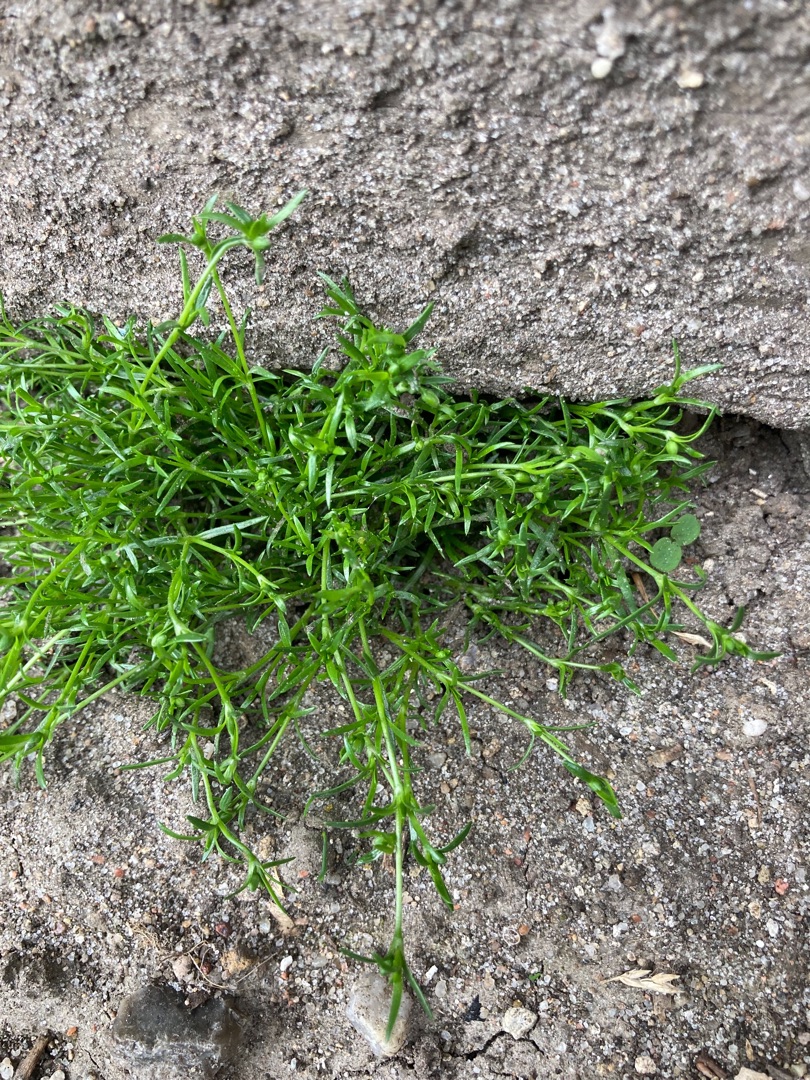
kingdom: Plantae
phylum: Tracheophyta
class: Magnoliopsida
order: Caryophyllales
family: Caryophyllaceae
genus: Sagina
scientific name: Sagina procumbens
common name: Almindelig firling
